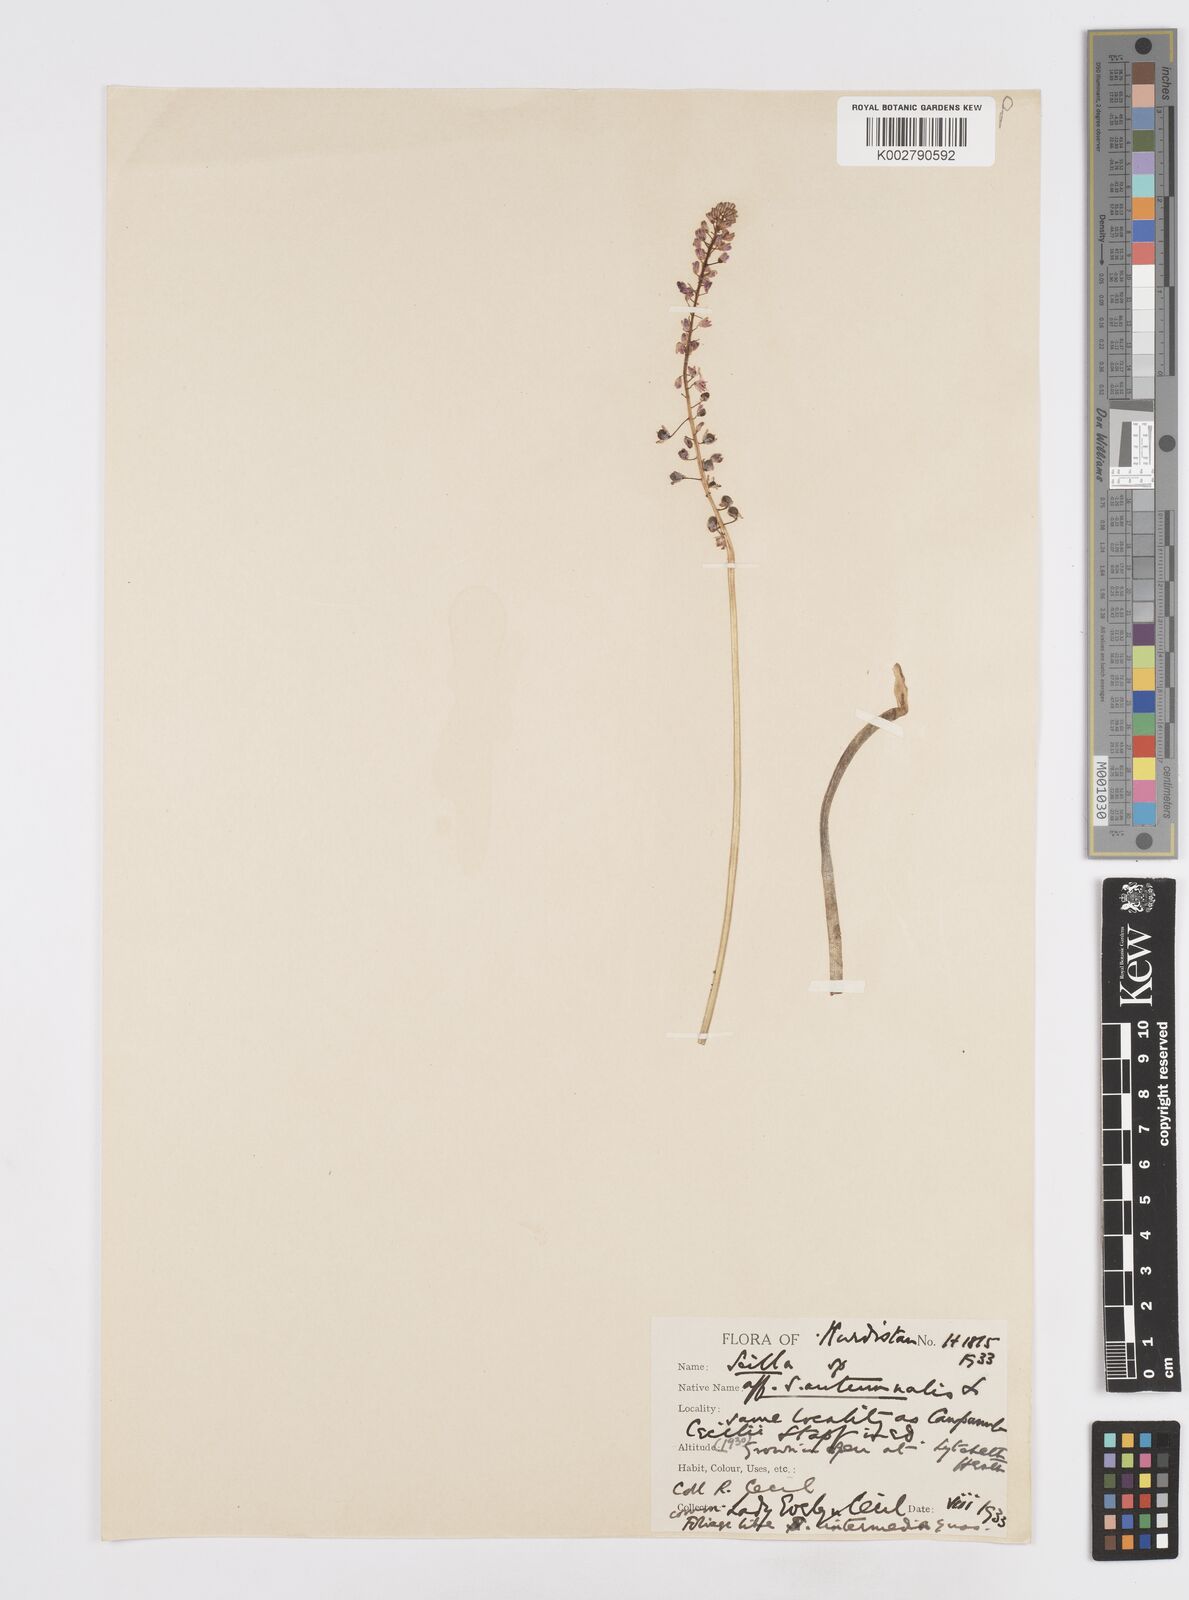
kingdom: Plantae
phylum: Tracheophyta
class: Liliopsida
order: Asparagales
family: Asparagaceae
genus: Prospero
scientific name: Prospero autumnale
